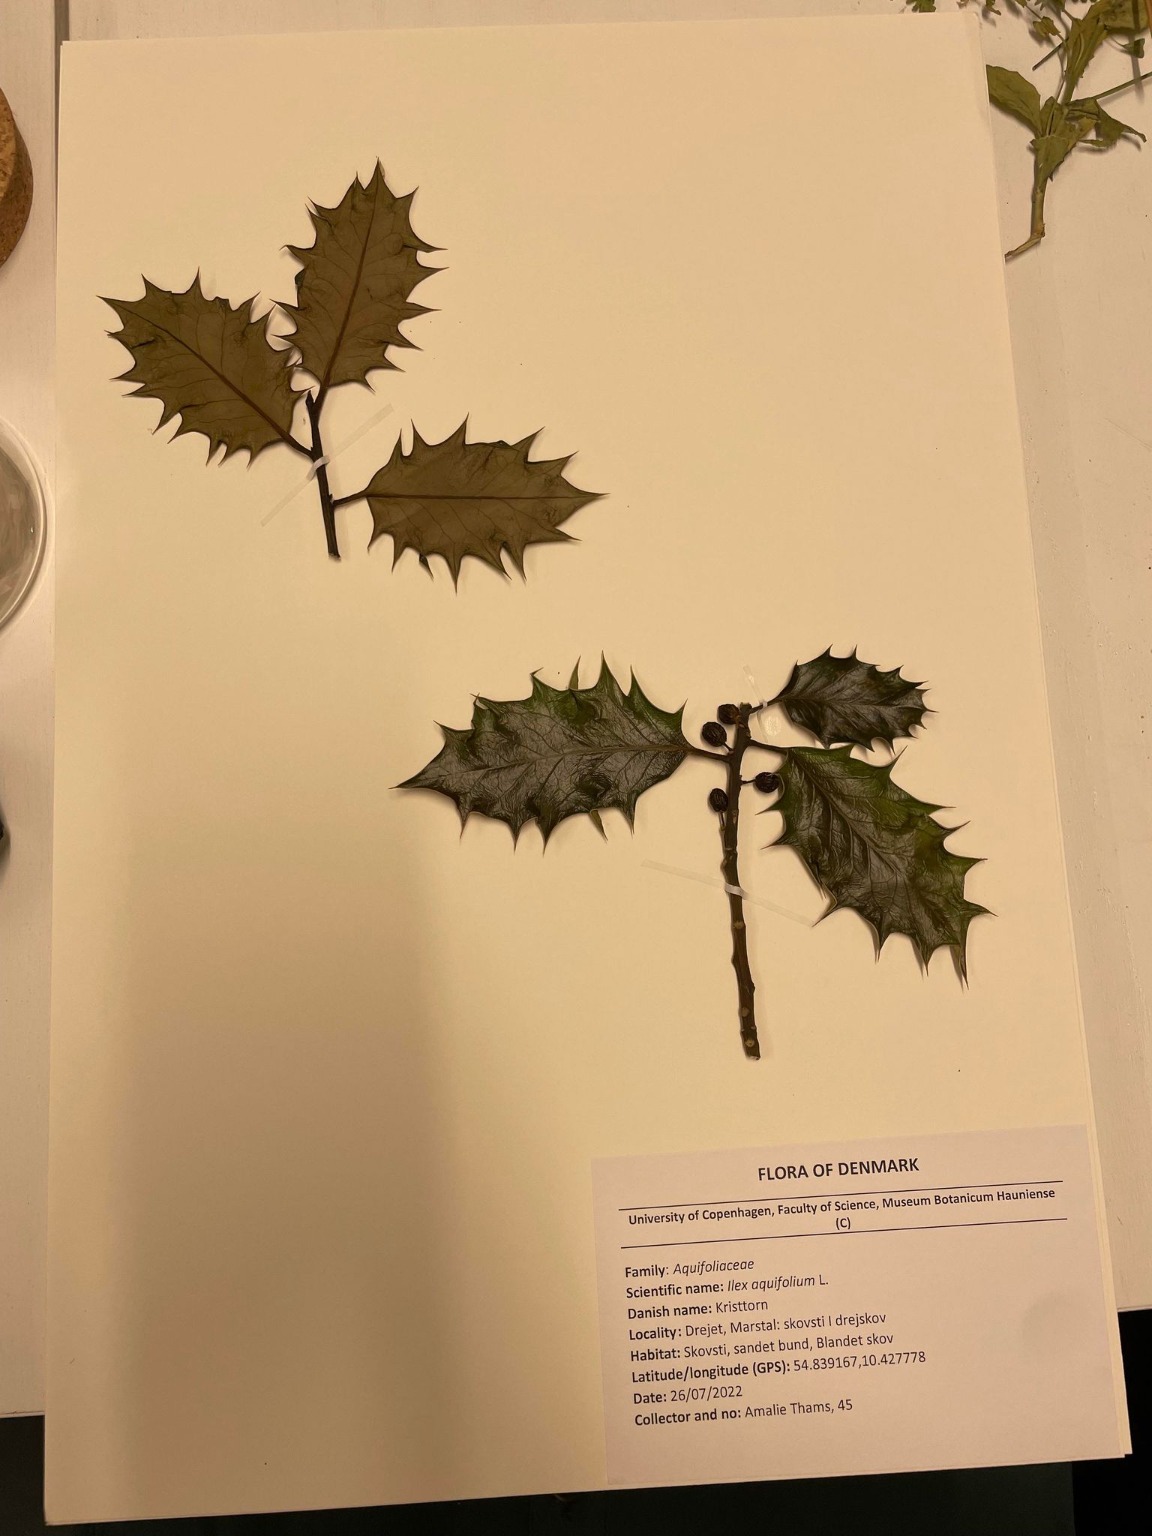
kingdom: Plantae
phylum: Tracheophyta
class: Magnoliopsida
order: Aquifoliales
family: Aquifoliaceae
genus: Ilex
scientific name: Ilex aquifolium
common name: Kristtorn
